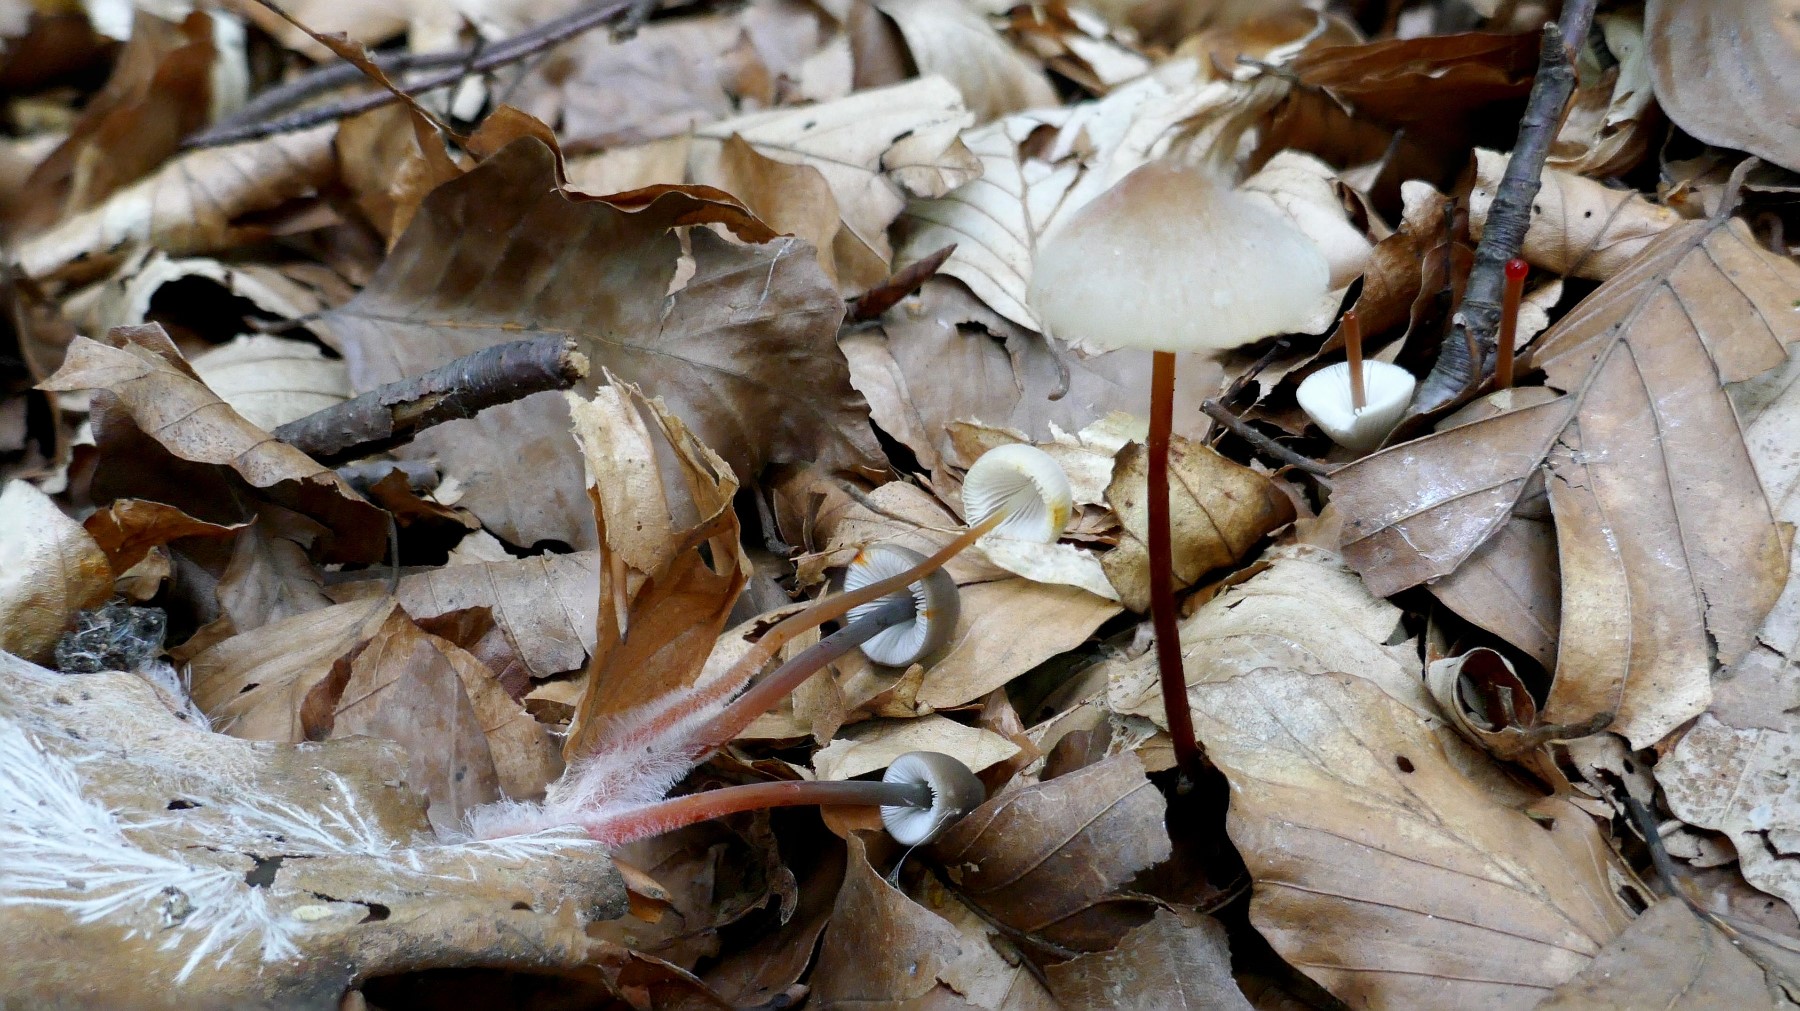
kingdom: Fungi
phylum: Basidiomycota
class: Agaricomycetes
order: Agaricales
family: Mycenaceae
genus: Mycena
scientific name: Mycena crocata
